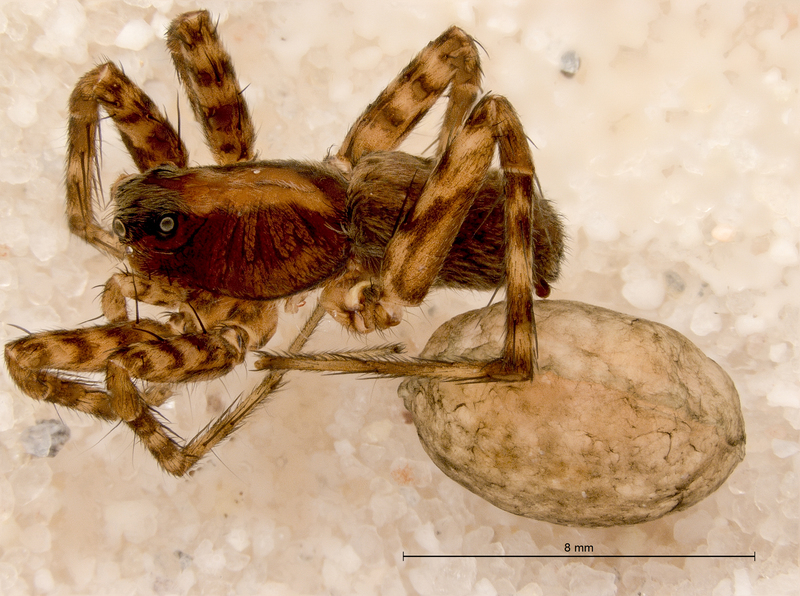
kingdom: Animalia
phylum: Arthropoda
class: Arachnida
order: Araneae
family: Lycosidae
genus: Pardosa
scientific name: Pardosa lugubris
